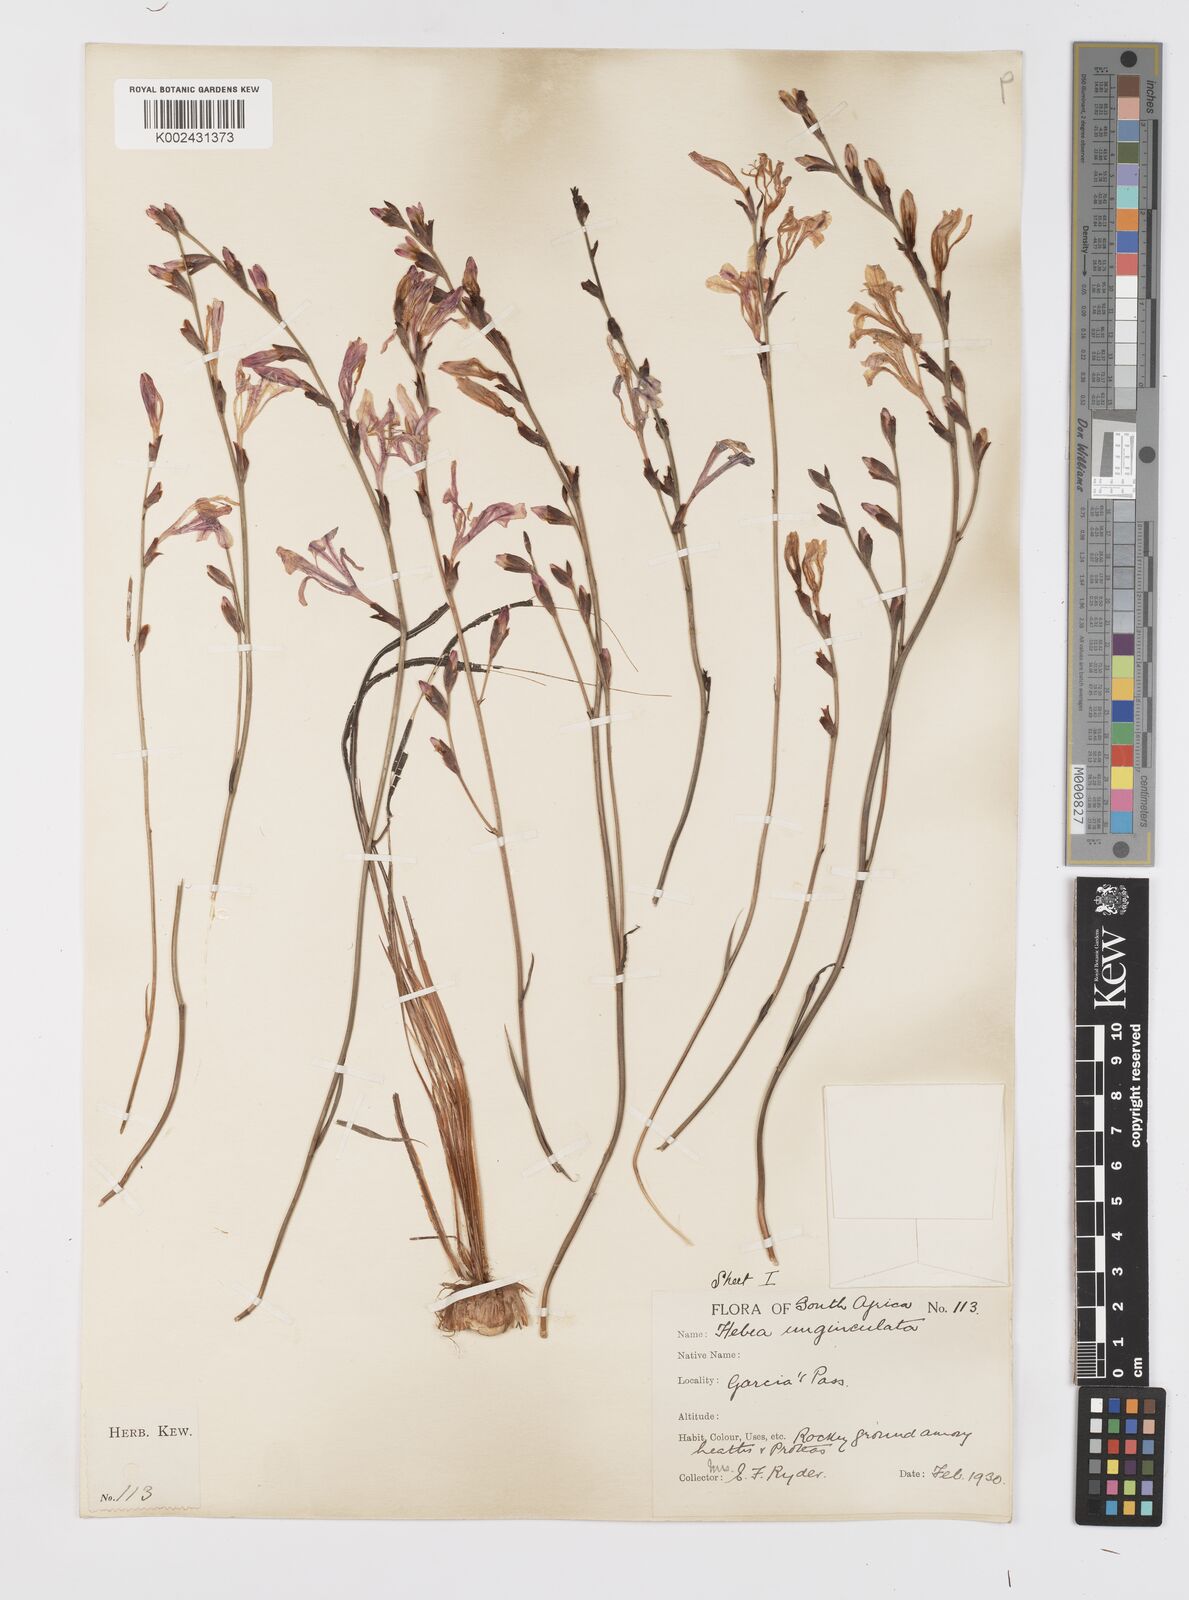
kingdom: Plantae
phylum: Tracheophyta
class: Liliopsida
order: Asparagales
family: Iridaceae
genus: Tritoniopsis
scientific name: Tritoniopsis ramosa
